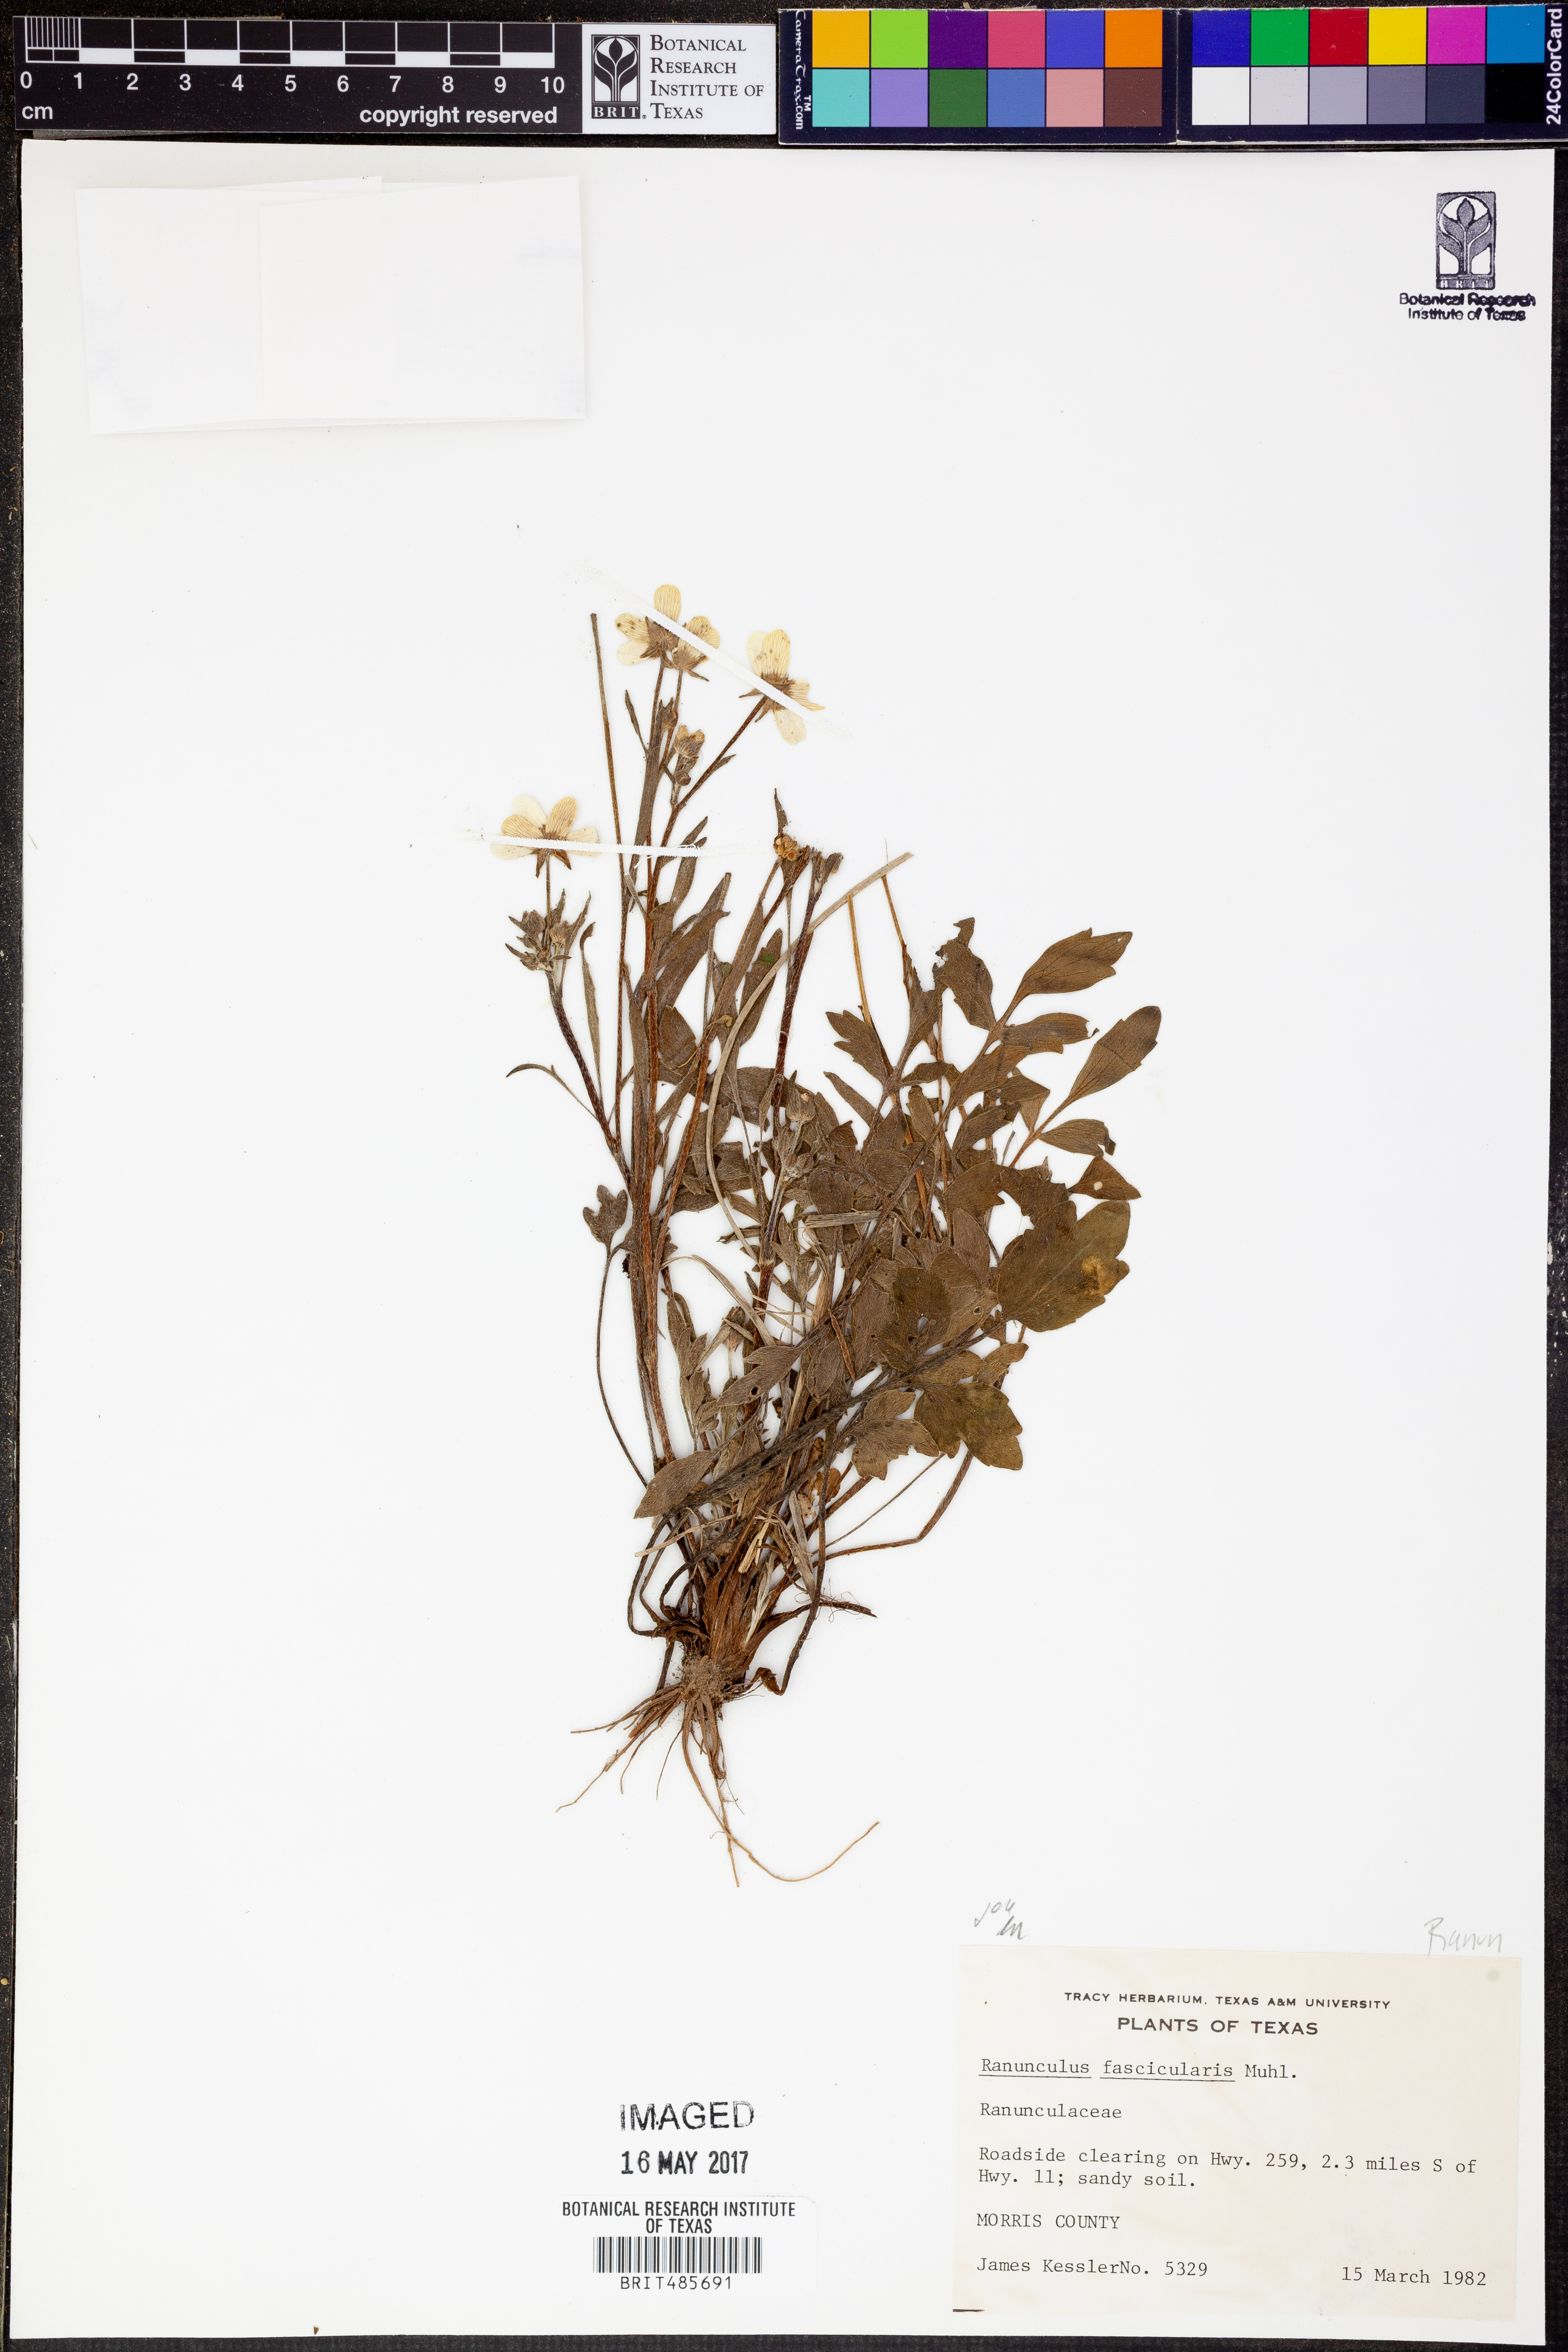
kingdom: Plantae
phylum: Tracheophyta
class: Magnoliopsida
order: Ranunculales
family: Ranunculaceae
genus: Ranunculus
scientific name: Ranunculus fascicularis
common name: Early buttercup
